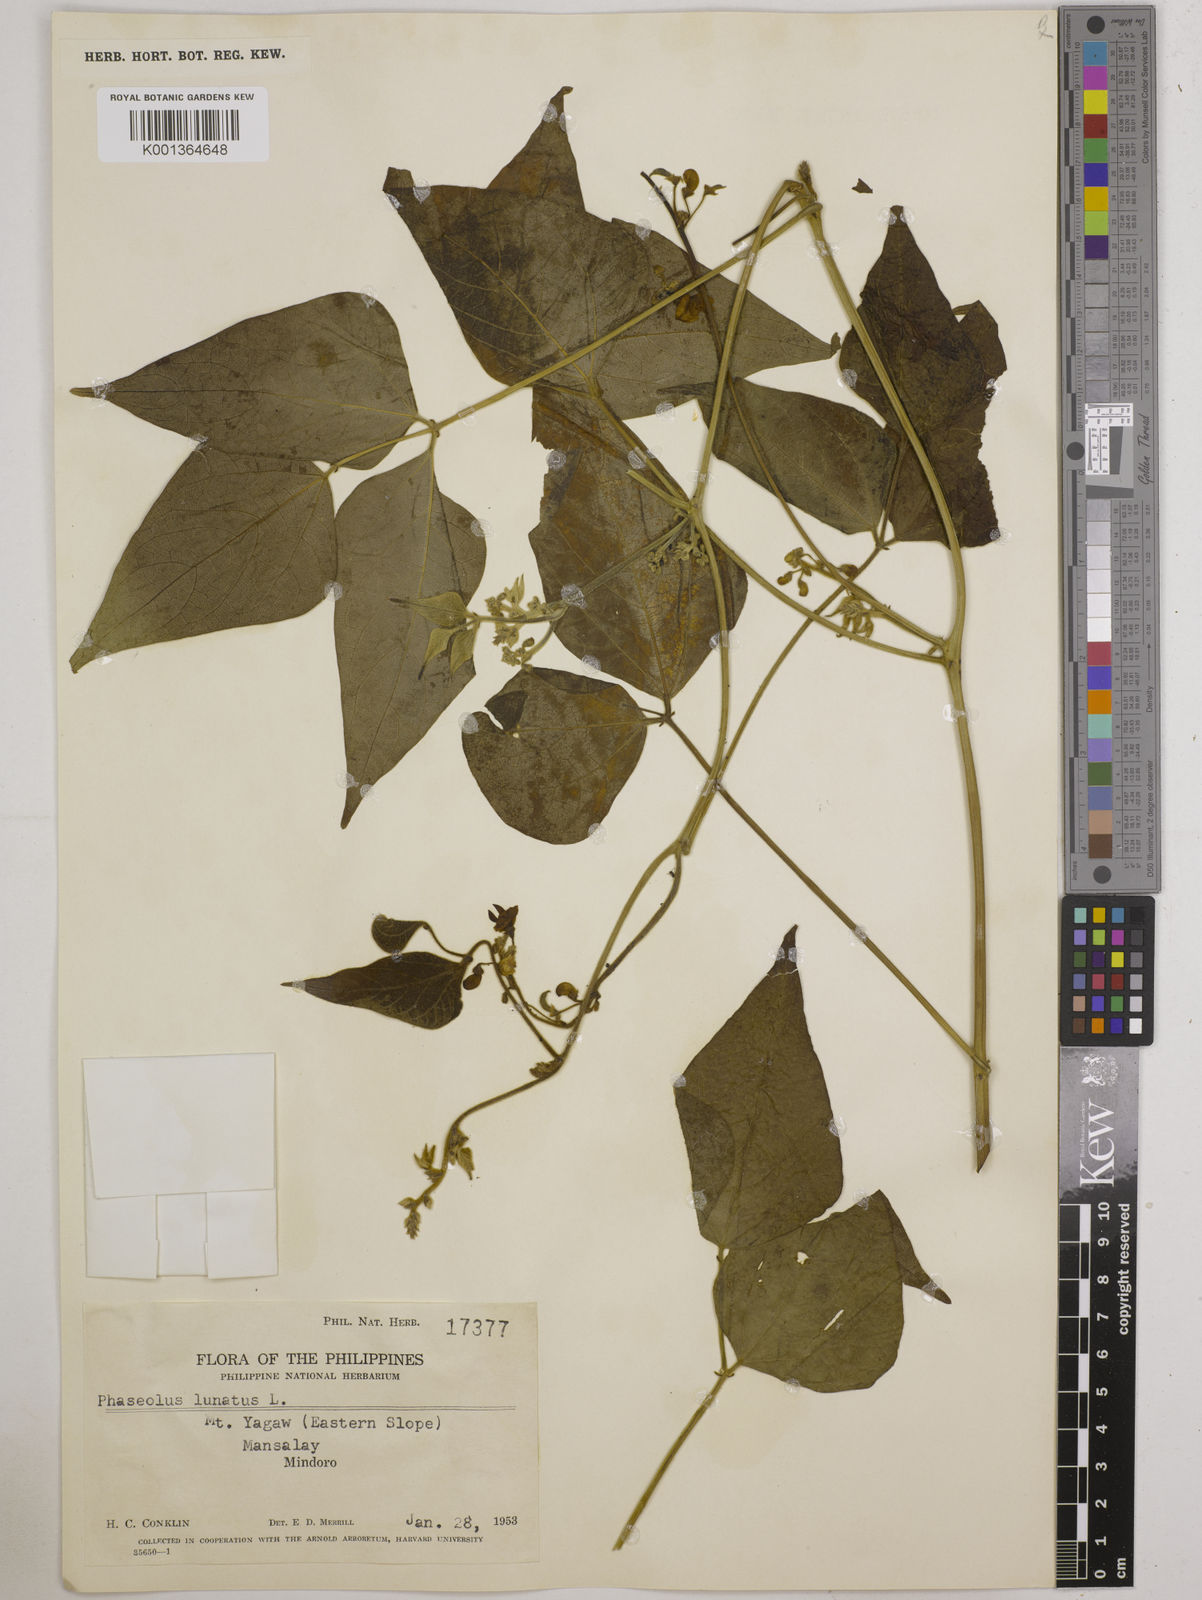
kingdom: Plantae
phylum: Tracheophyta
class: Magnoliopsida
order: Fabales
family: Fabaceae
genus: Phaseolus
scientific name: Phaseolus lunatus
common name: Sieva bean
